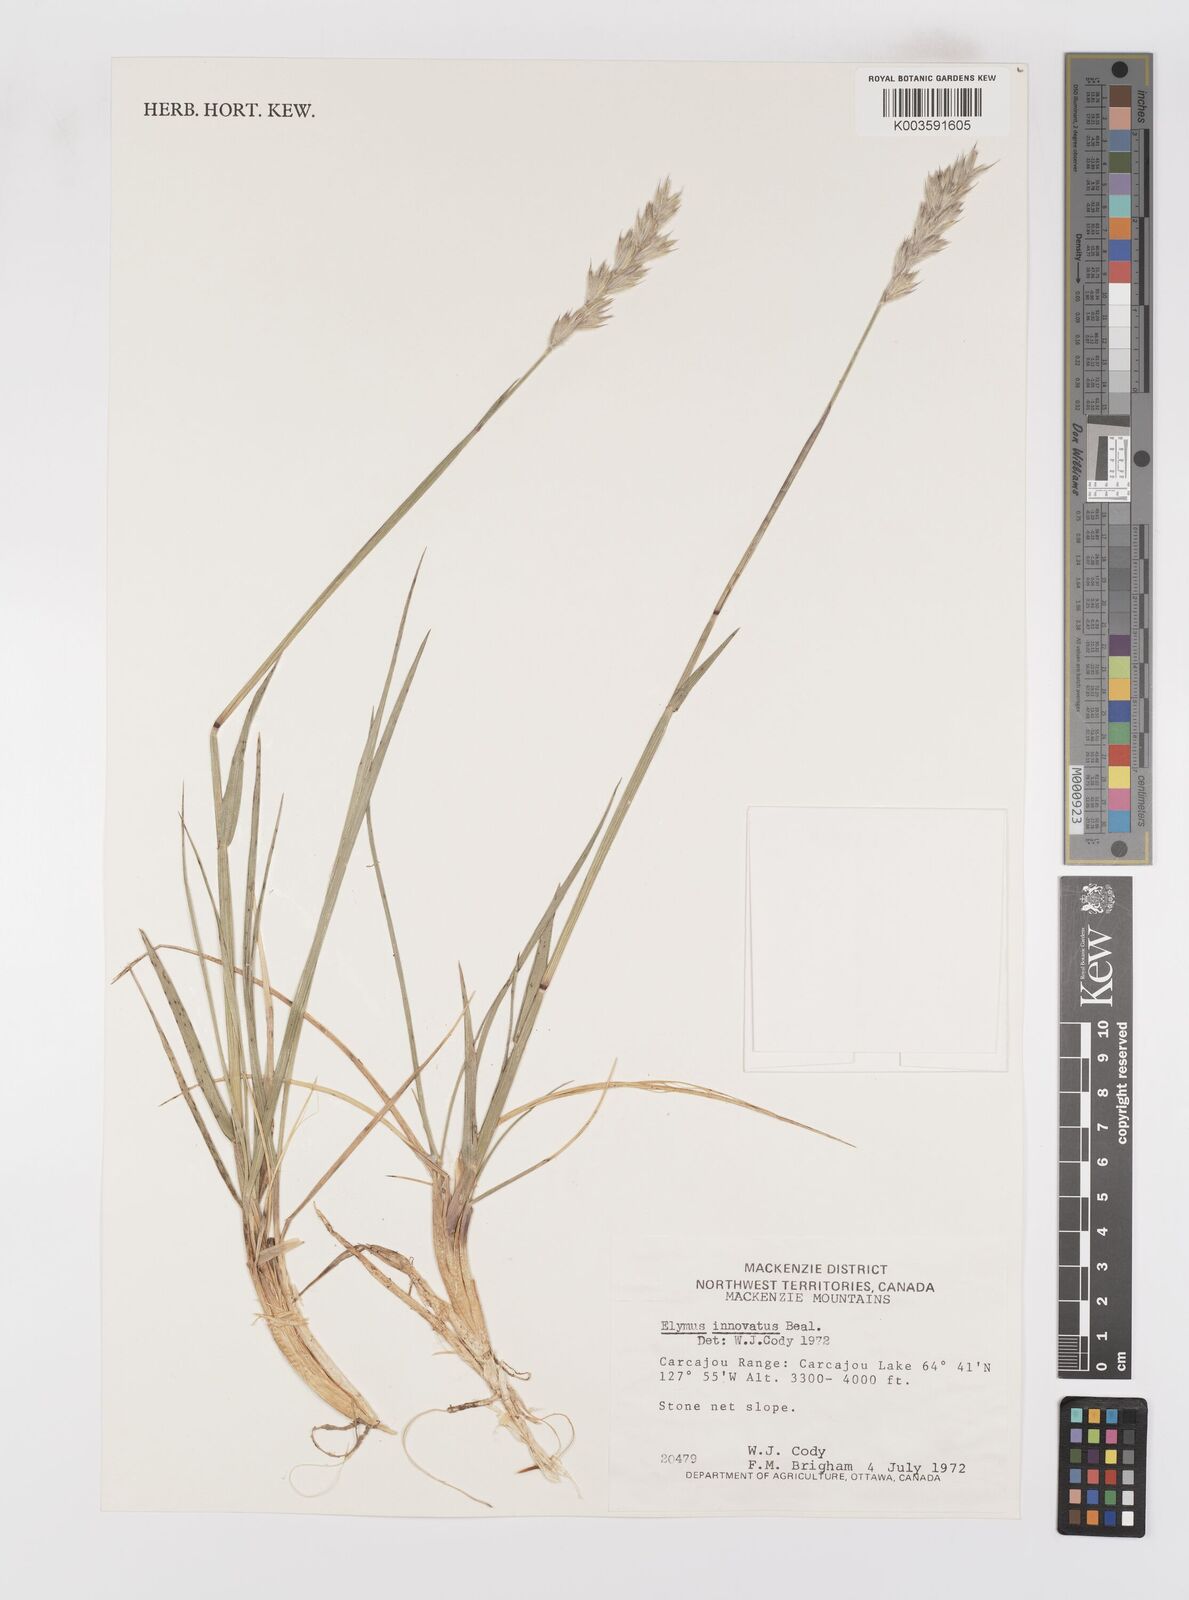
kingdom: Plantae
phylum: Tracheophyta
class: Liliopsida
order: Poales
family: Poaceae
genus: Leymus
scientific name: Leymus innovatus
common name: Boreal wild rye
